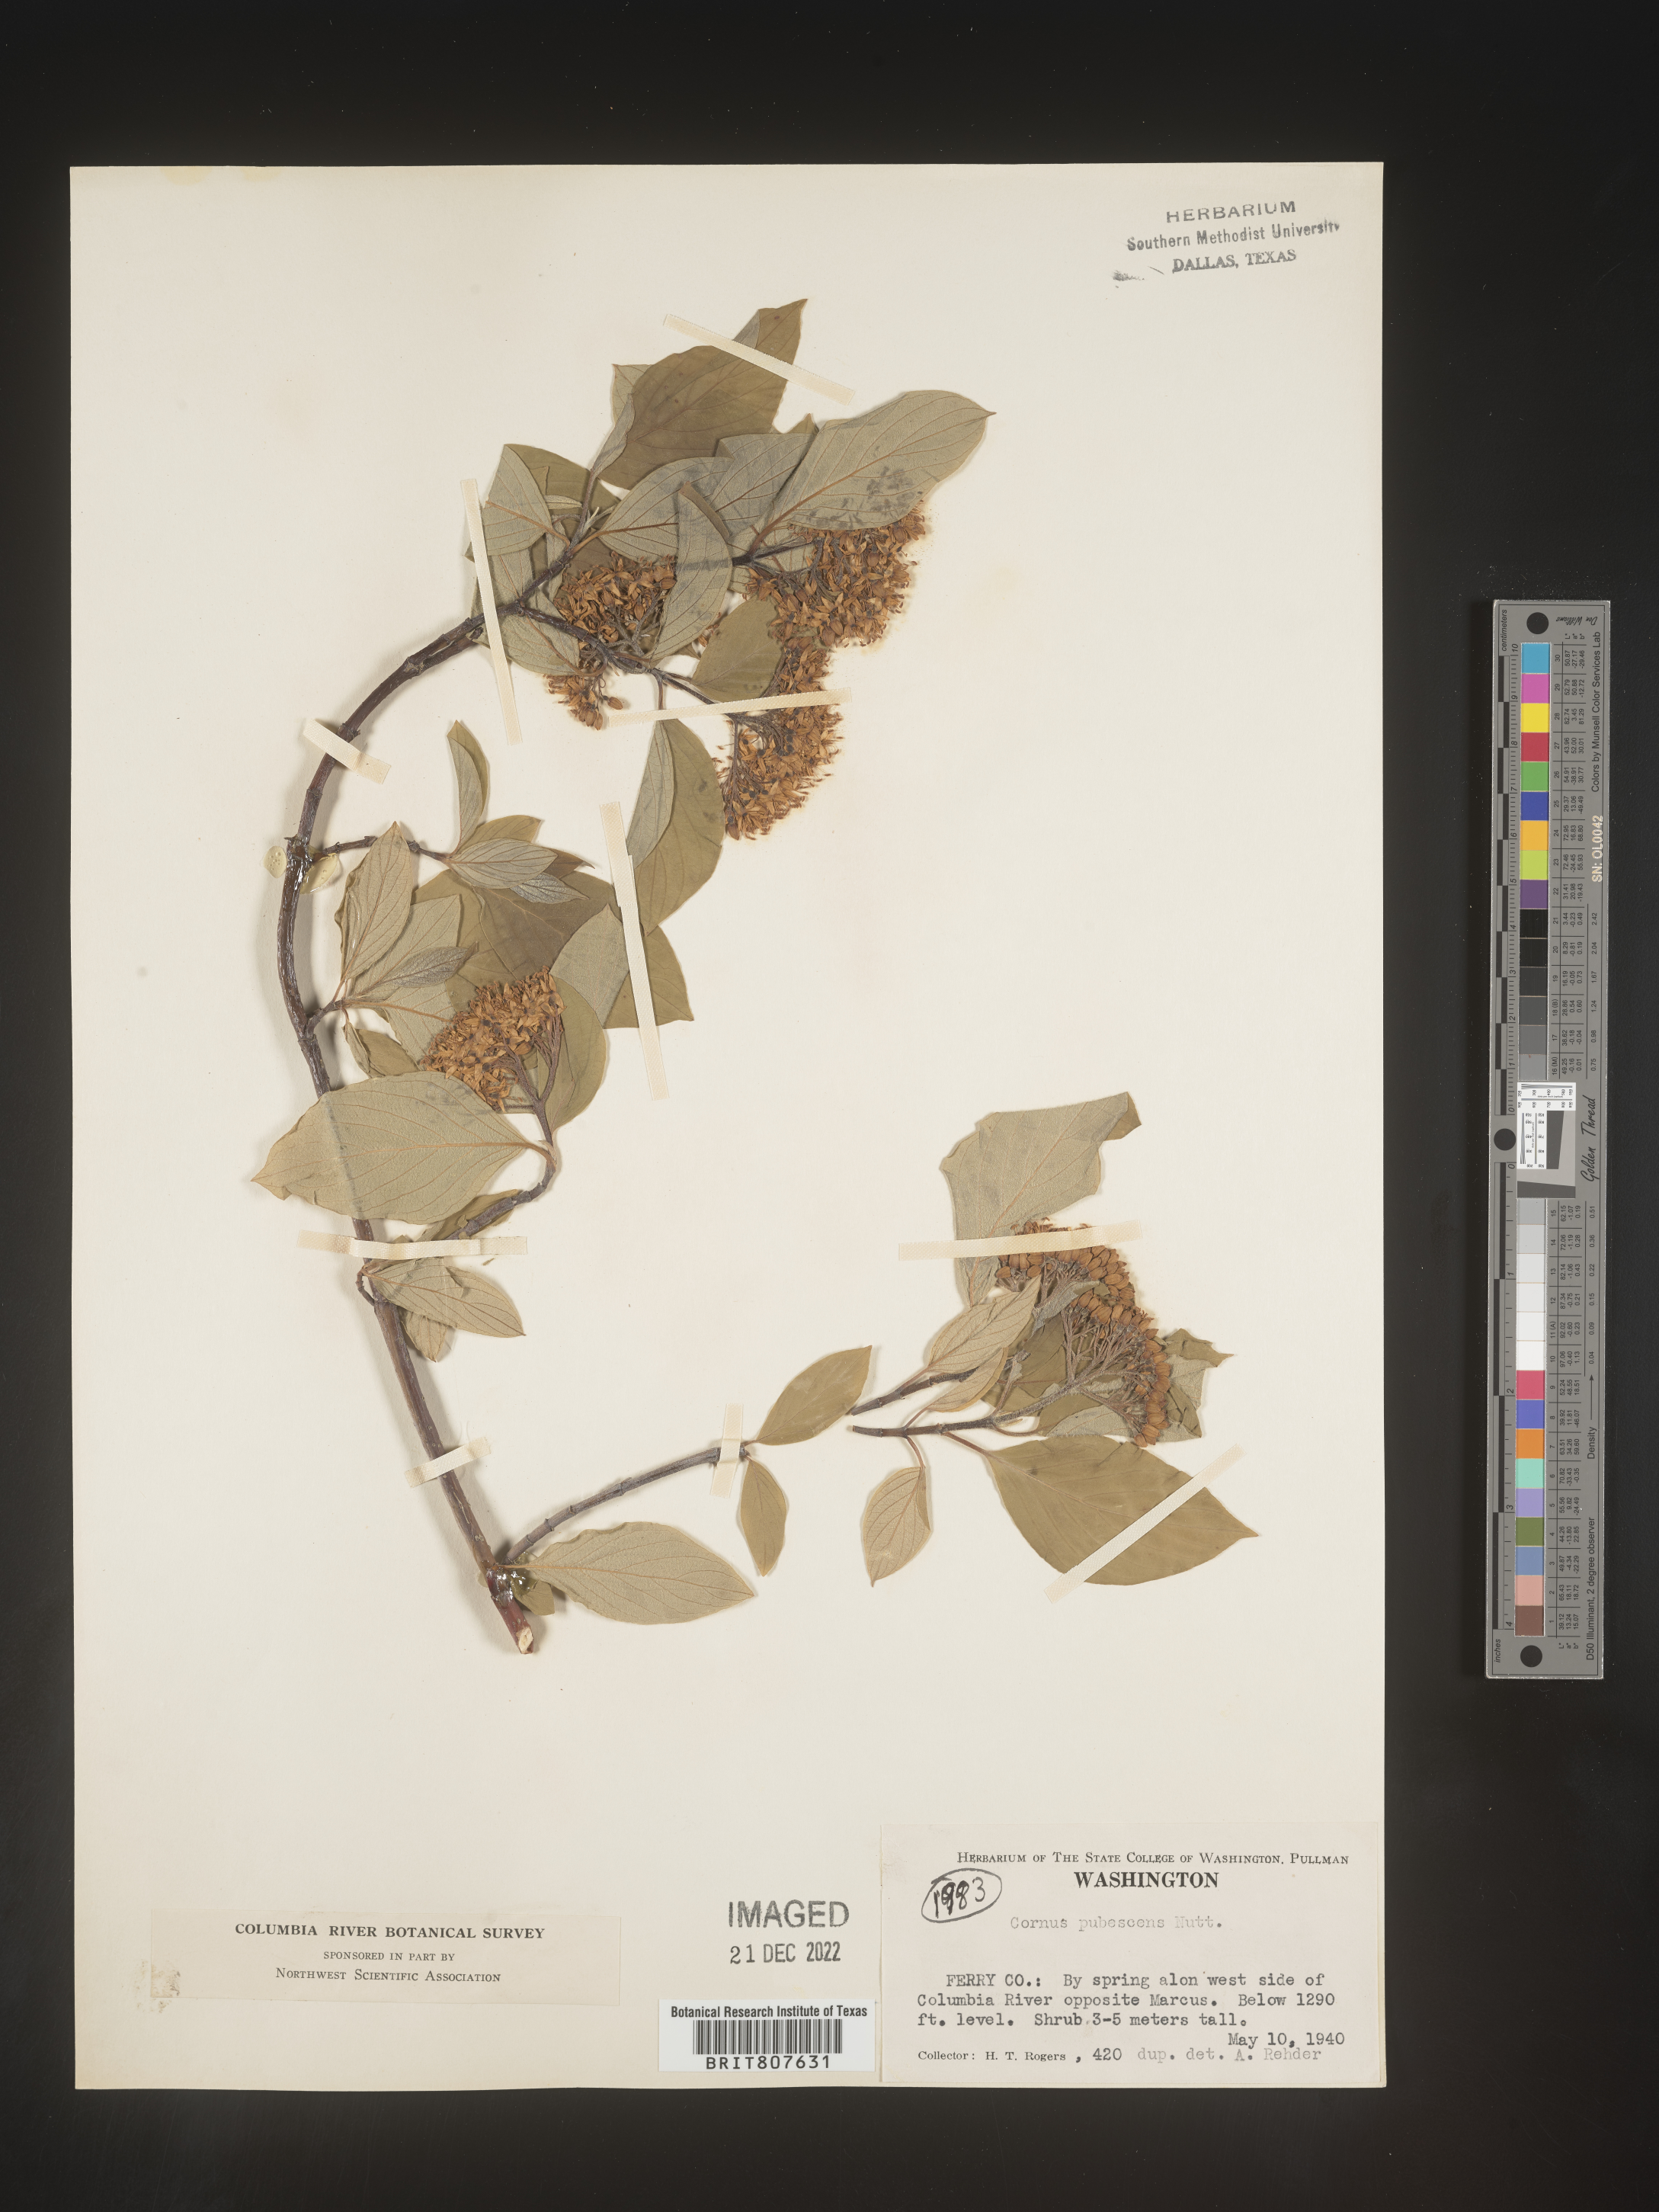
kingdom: Plantae
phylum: Tracheophyta
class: Magnoliopsida
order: Cornales
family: Cornaceae
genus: Cornus
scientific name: Cornus
